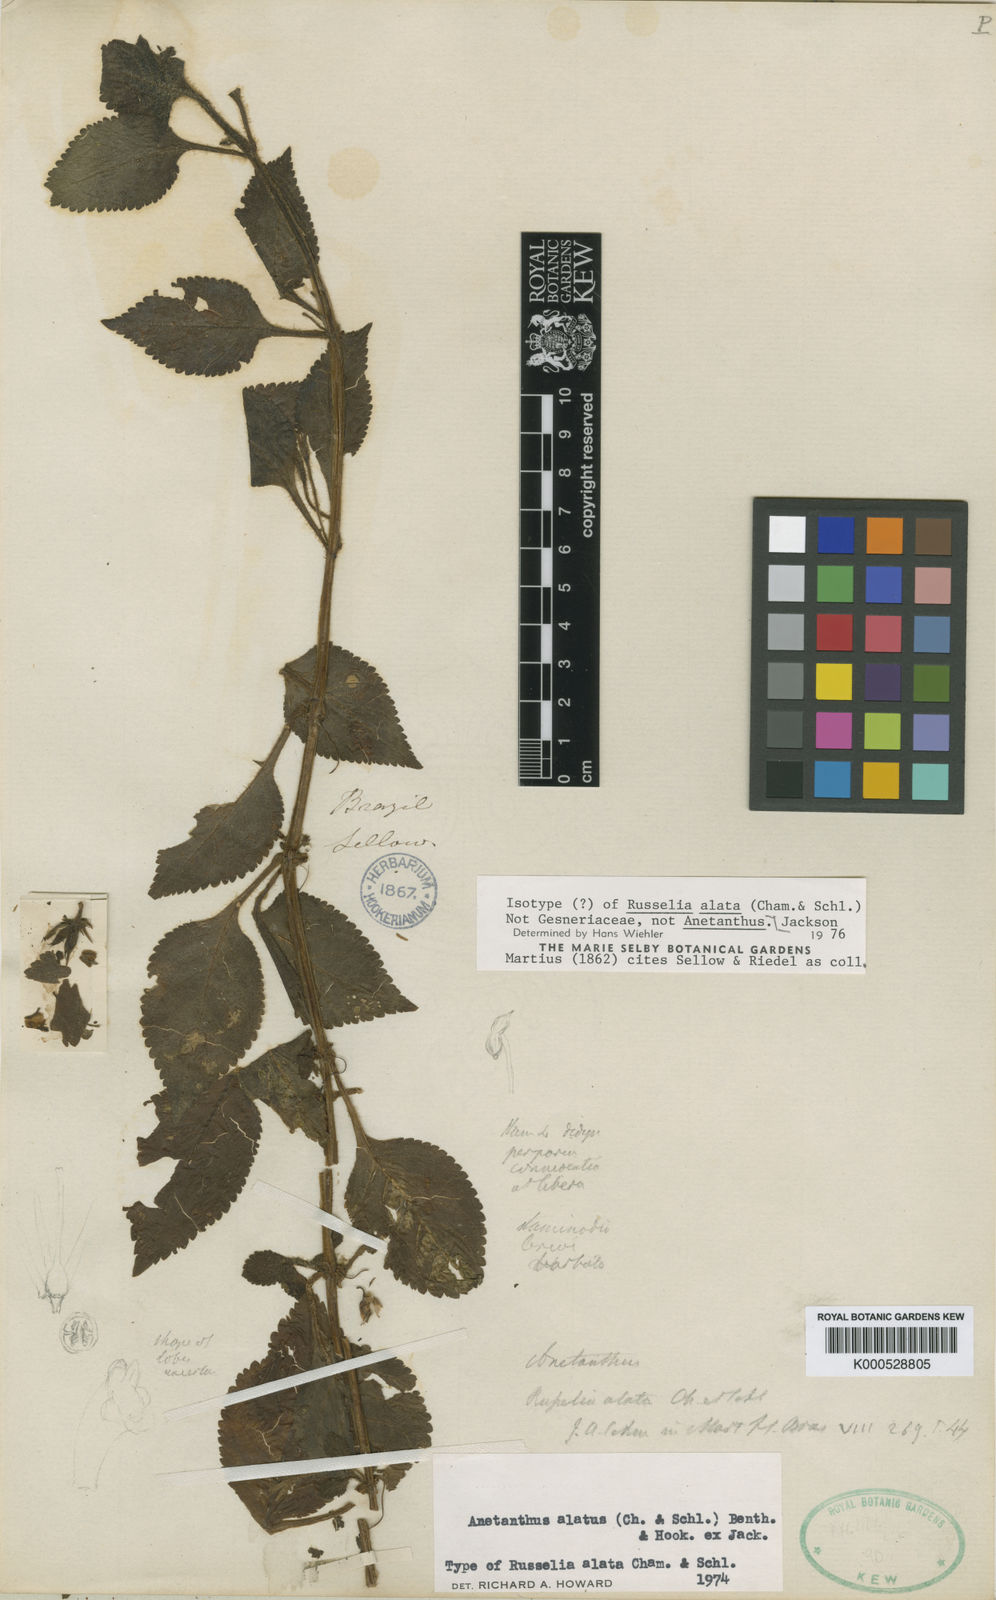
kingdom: Plantae
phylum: Tracheophyta
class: Magnoliopsida
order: Lamiales
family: Gesneriaceae
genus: Cubitanthus
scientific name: Cubitanthus alatus
